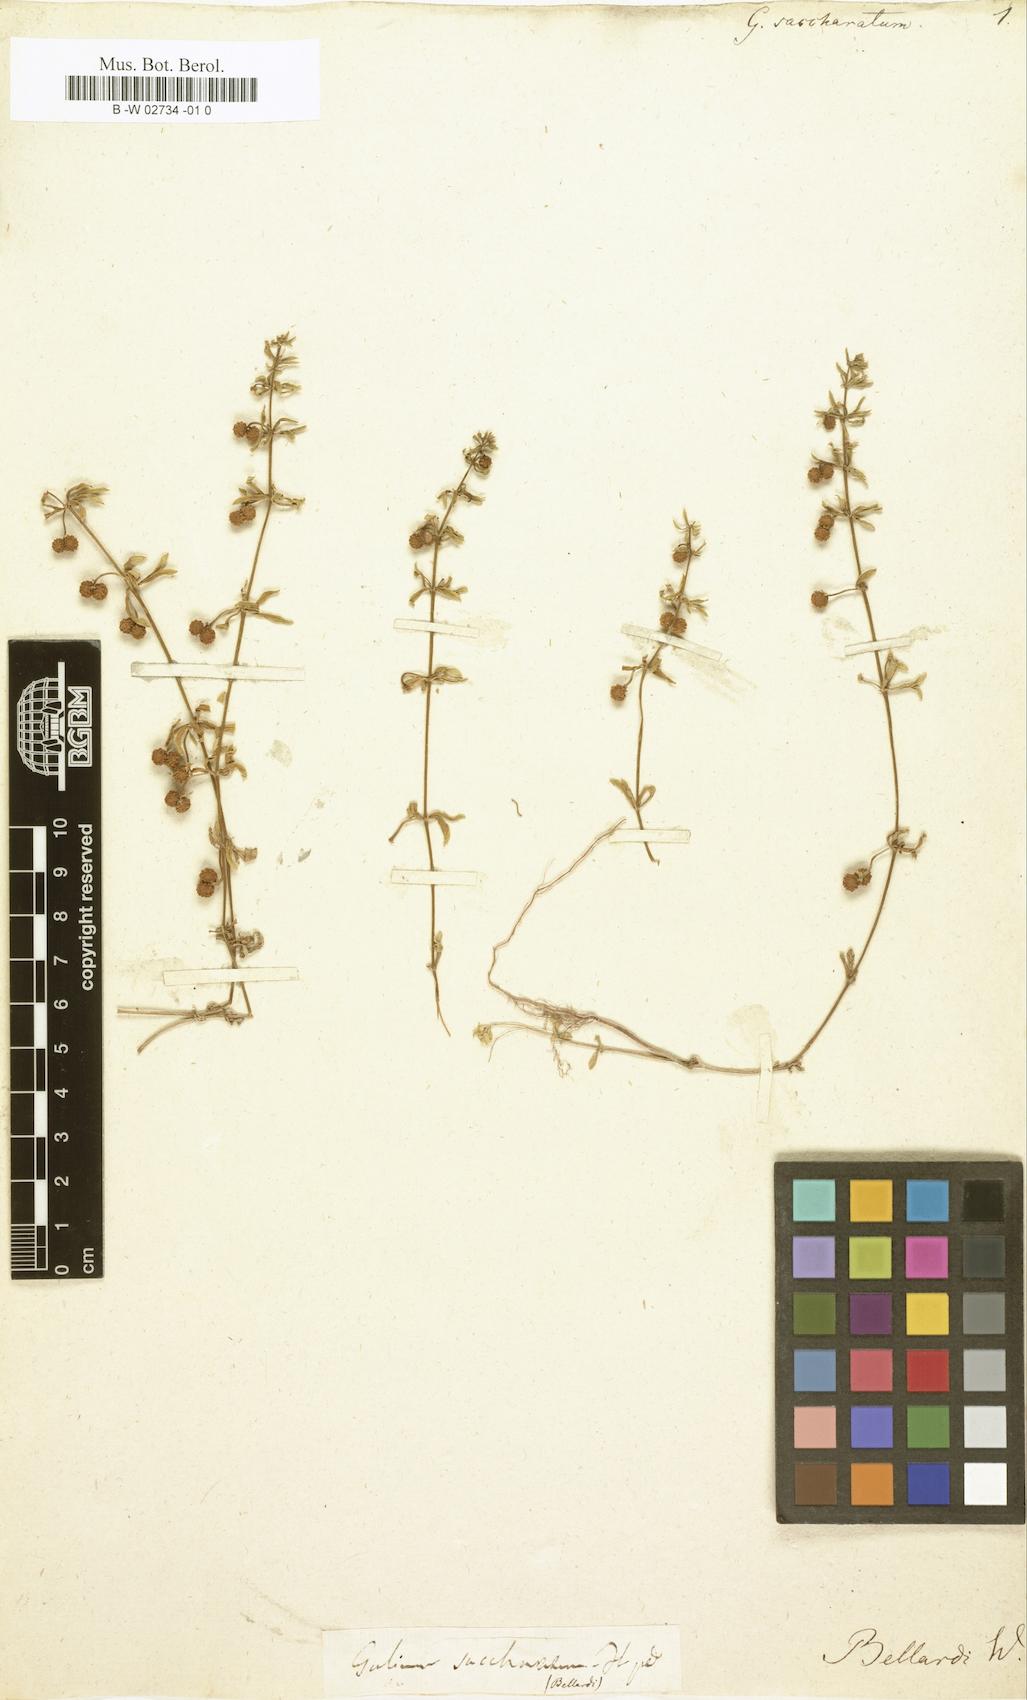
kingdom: Plantae
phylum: Tracheophyta
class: Magnoliopsida
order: Gentianales
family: Rubiaceae
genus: Galium
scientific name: Galium verrucosum
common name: Warty bedstraw
